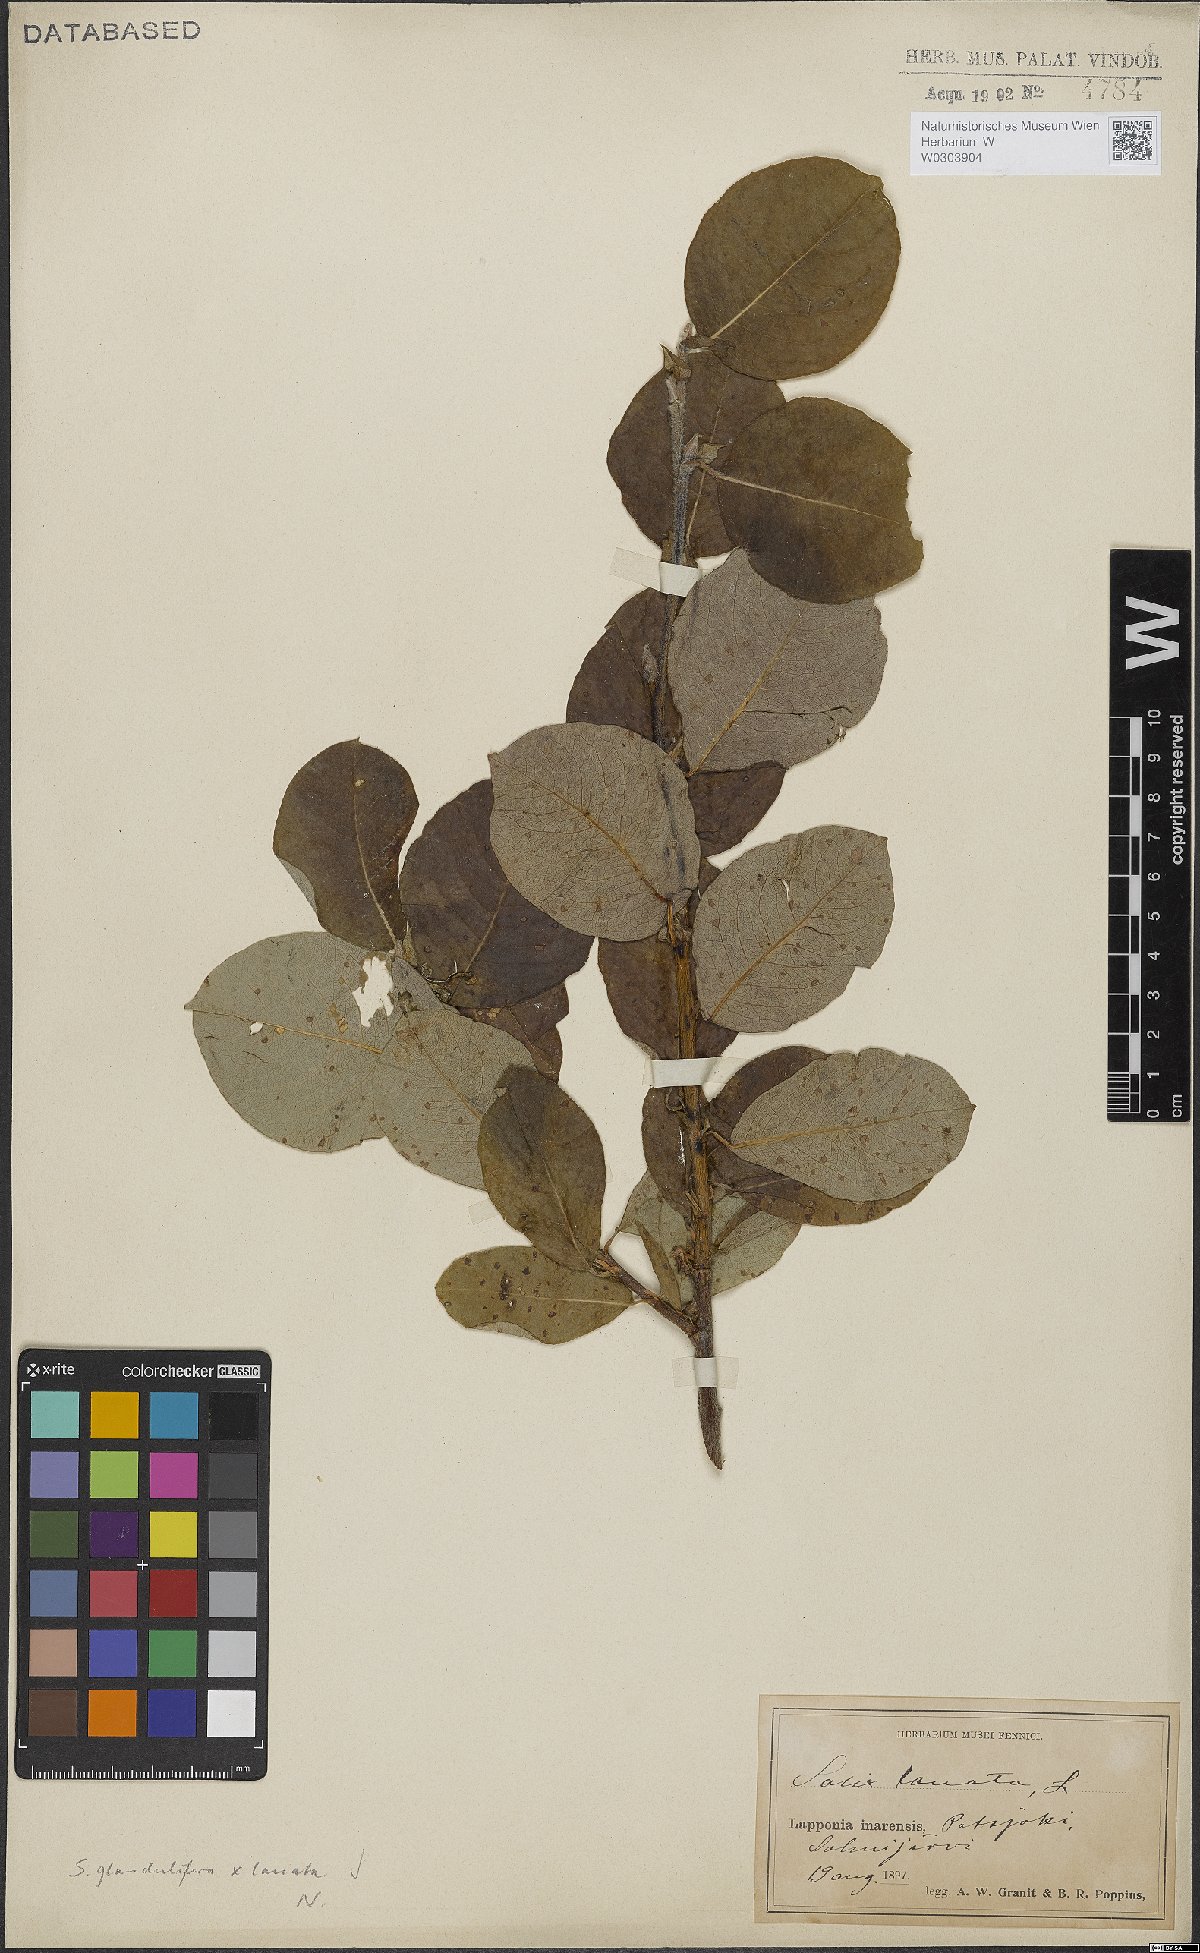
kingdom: Plantae
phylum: Tracheophyta
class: Magnoliopsida
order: Malpighiales
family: Salicaceae
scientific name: Salicaceae
